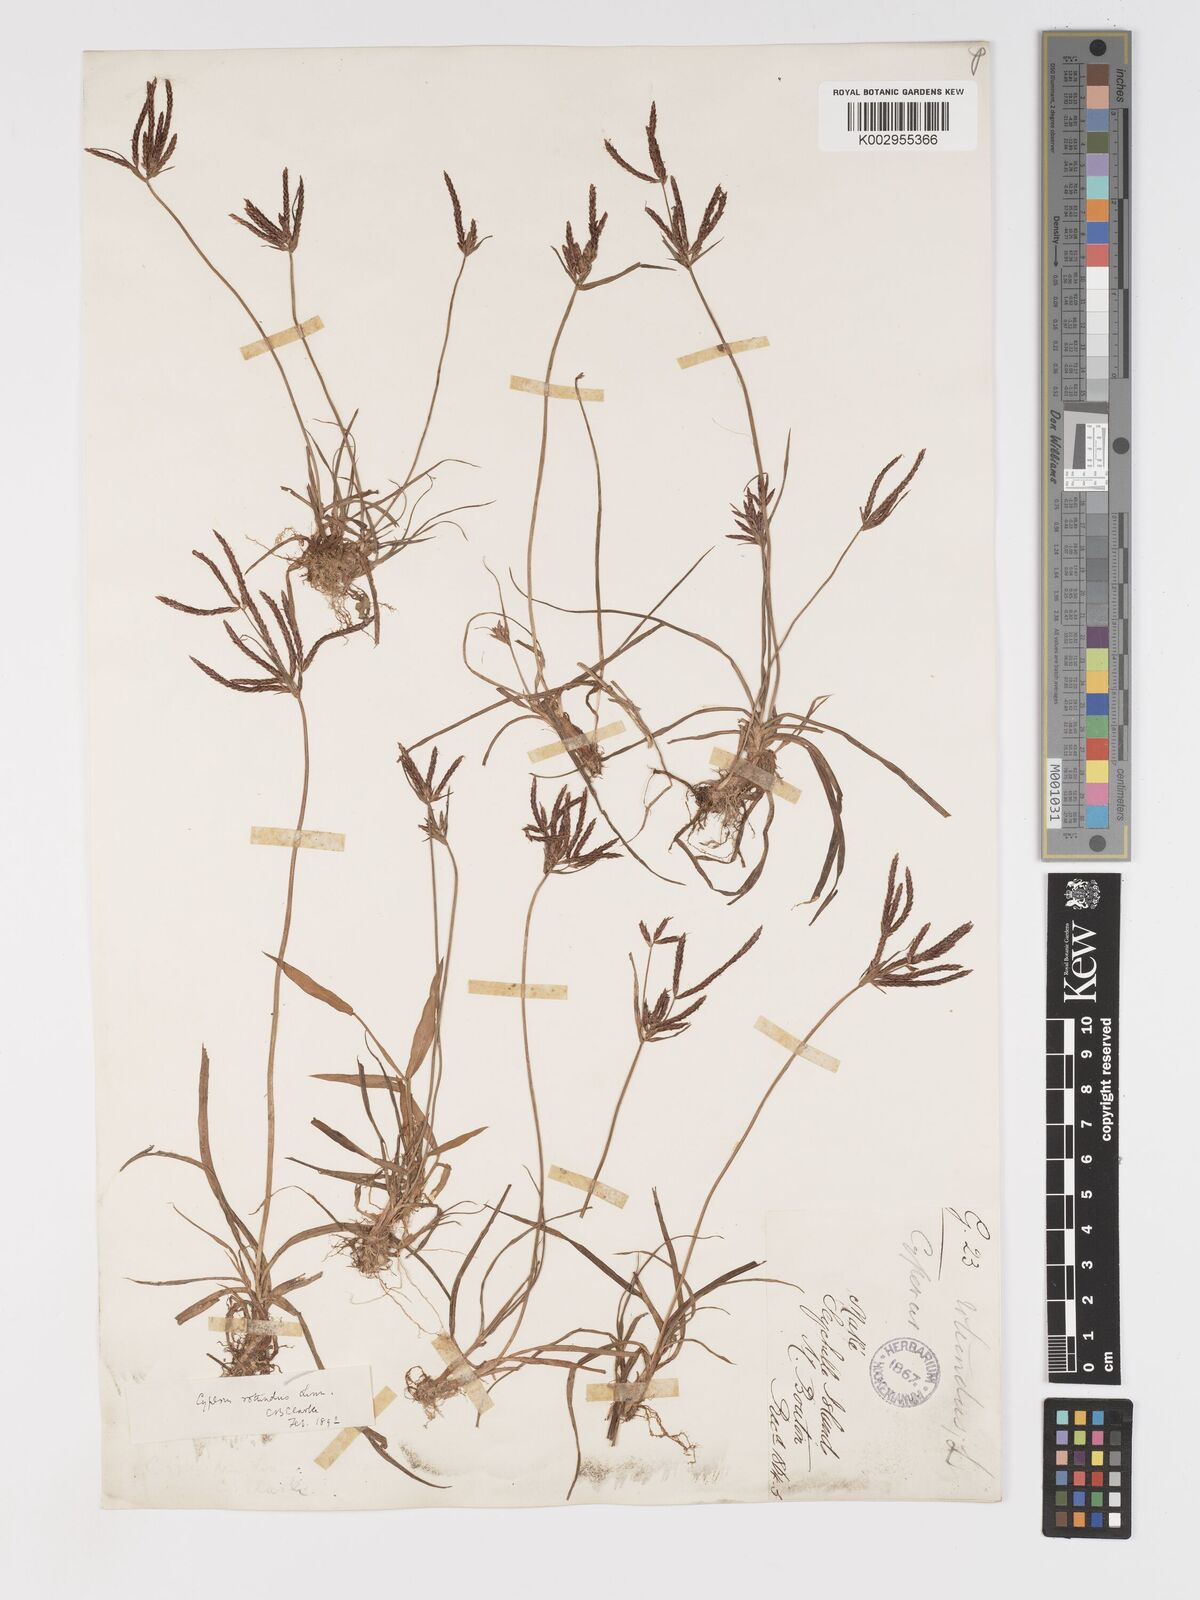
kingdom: Plantae
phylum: Tracheophyta
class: Liliopsida
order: Poales
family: Cyperaceae
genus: Cyperus
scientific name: Cyperus rotundus
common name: Nutgrass
